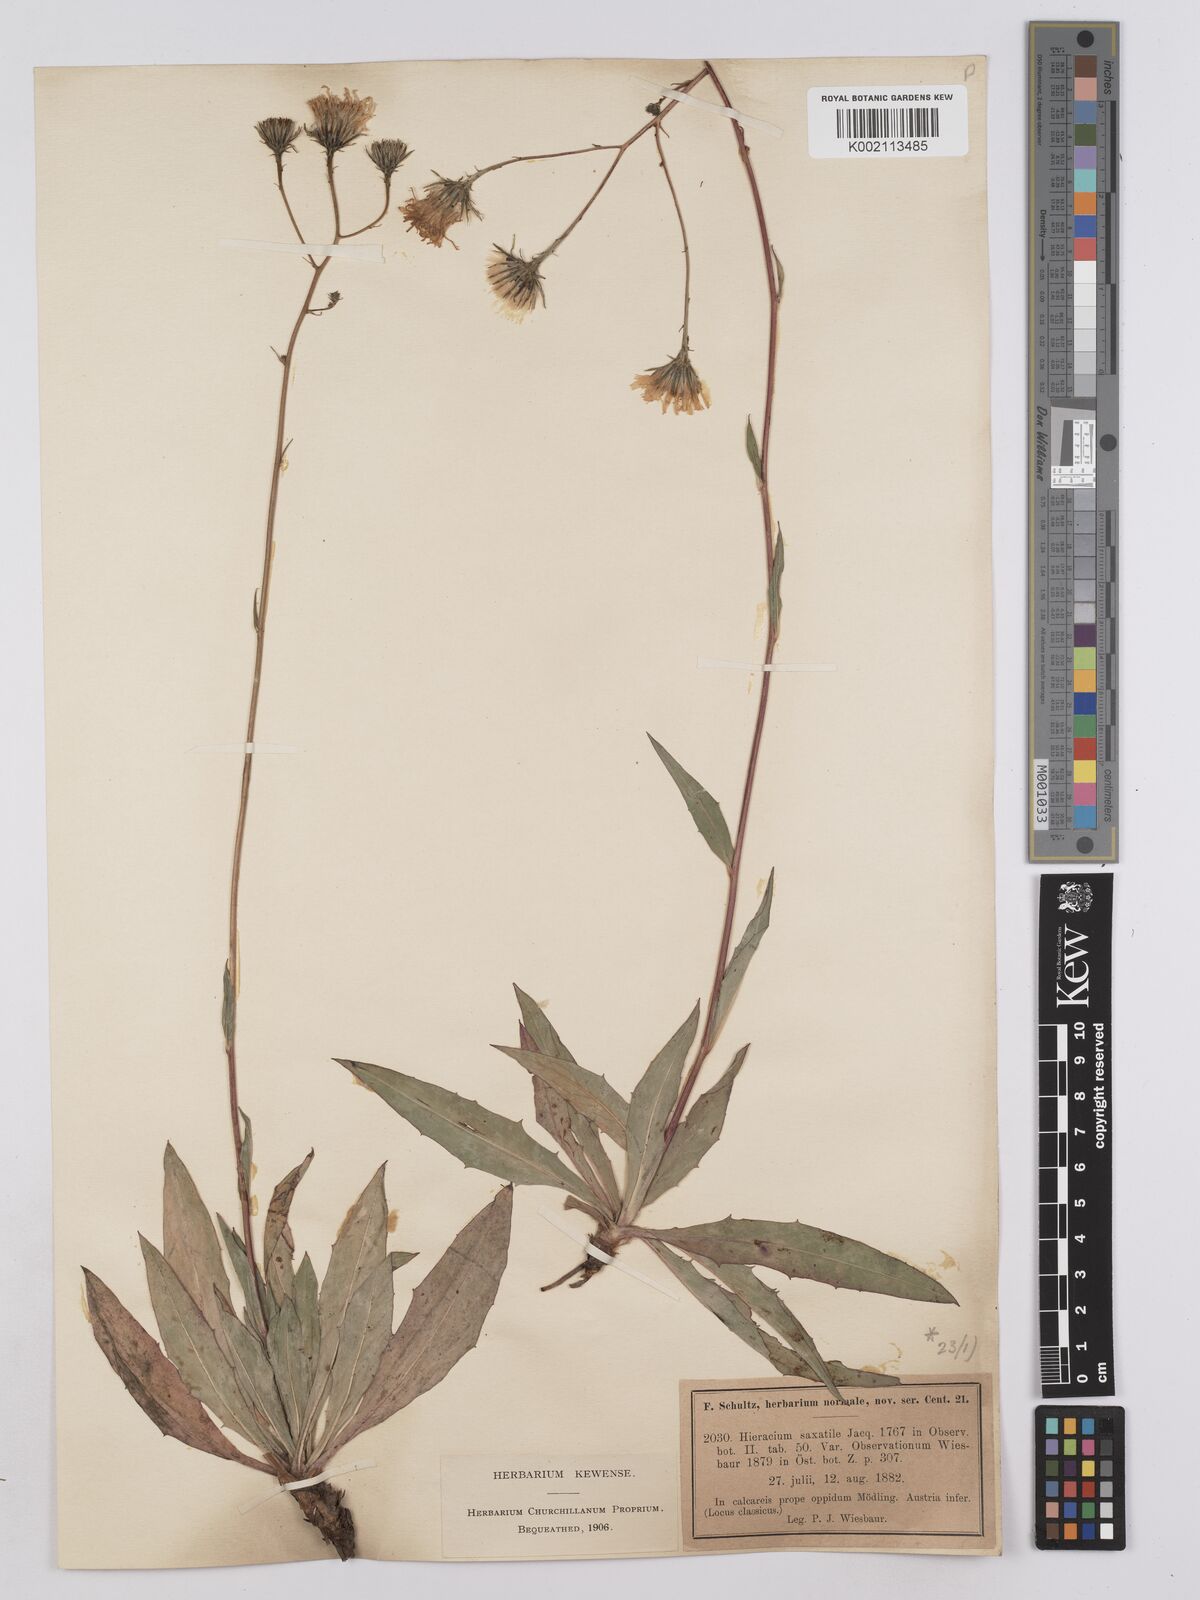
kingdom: Plantae
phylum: Tracheophyta
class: Magnoliopsida
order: Asterales
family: Asteraceae
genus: Hieracium
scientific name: Hieracium saxatile
